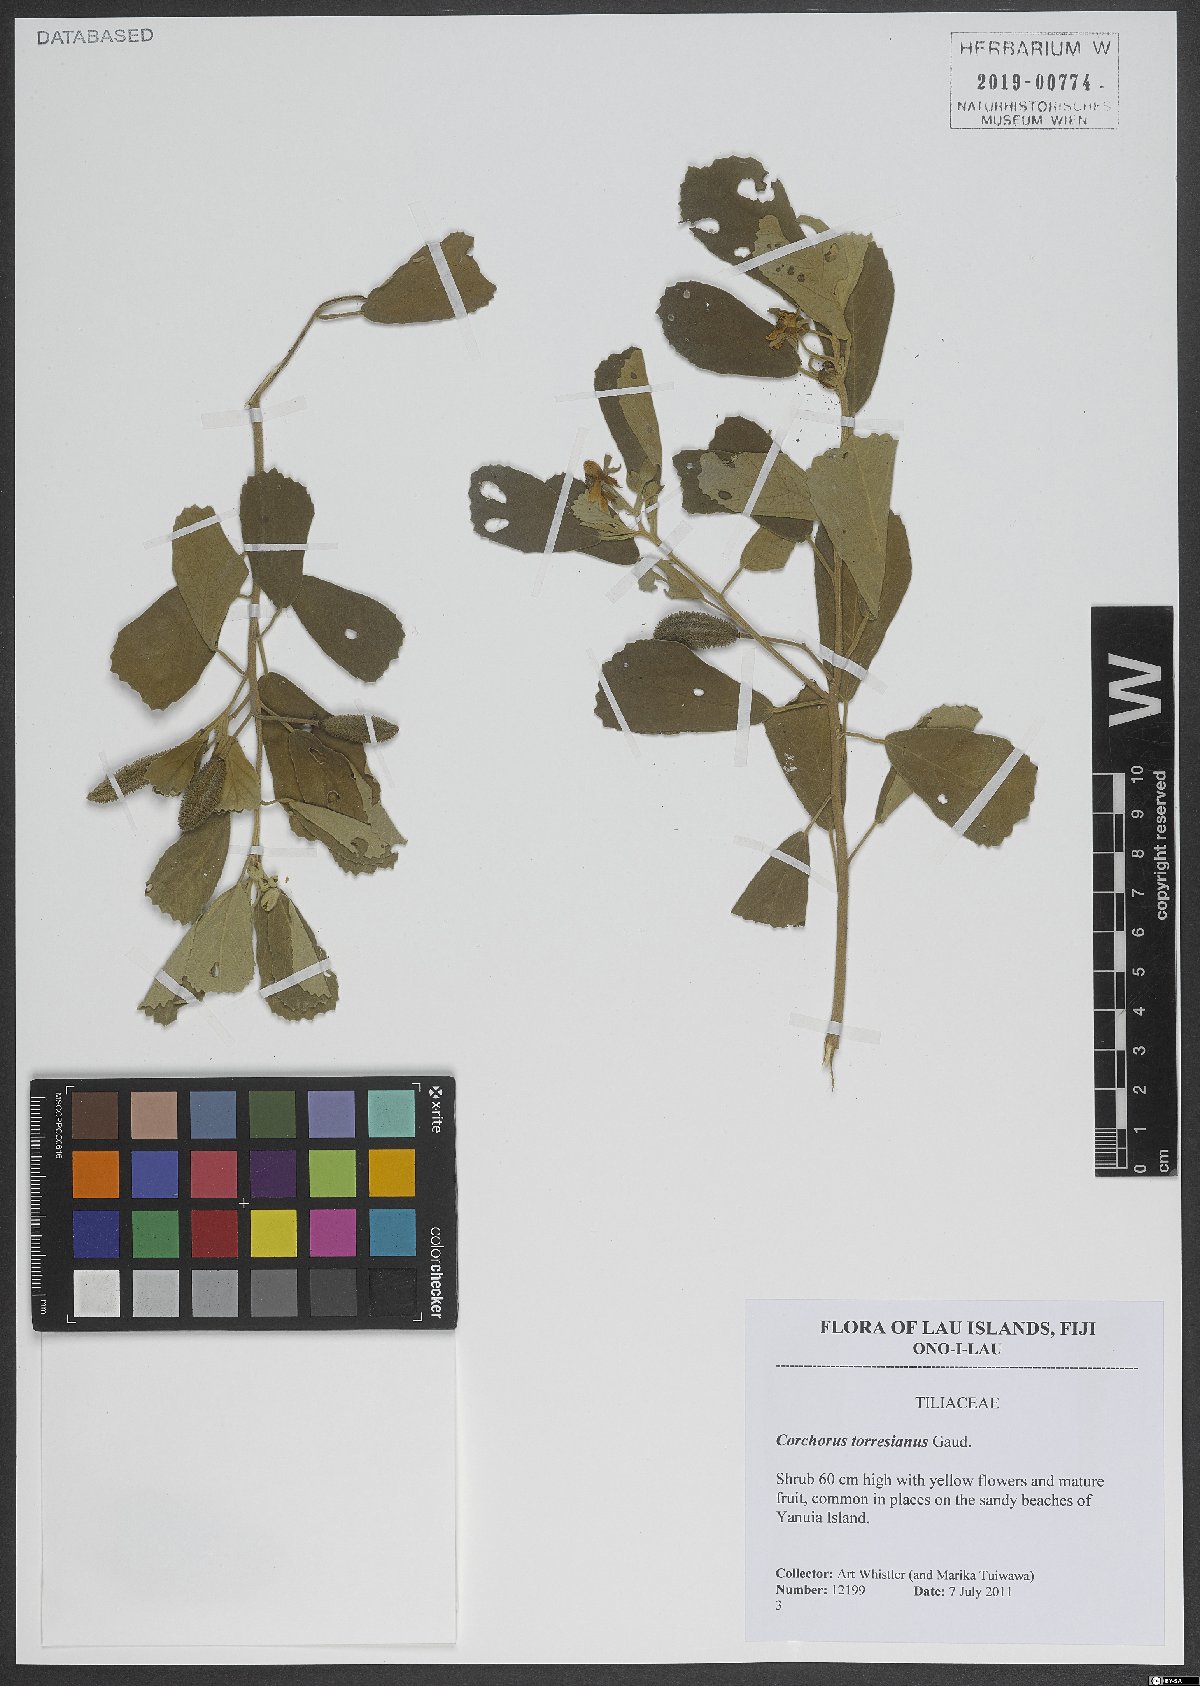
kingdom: Plantae
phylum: Tracheophyta
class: Magnoliopsida
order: Malvales
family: Malvaceae
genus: Corchorus
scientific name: Corchorus torresianus
